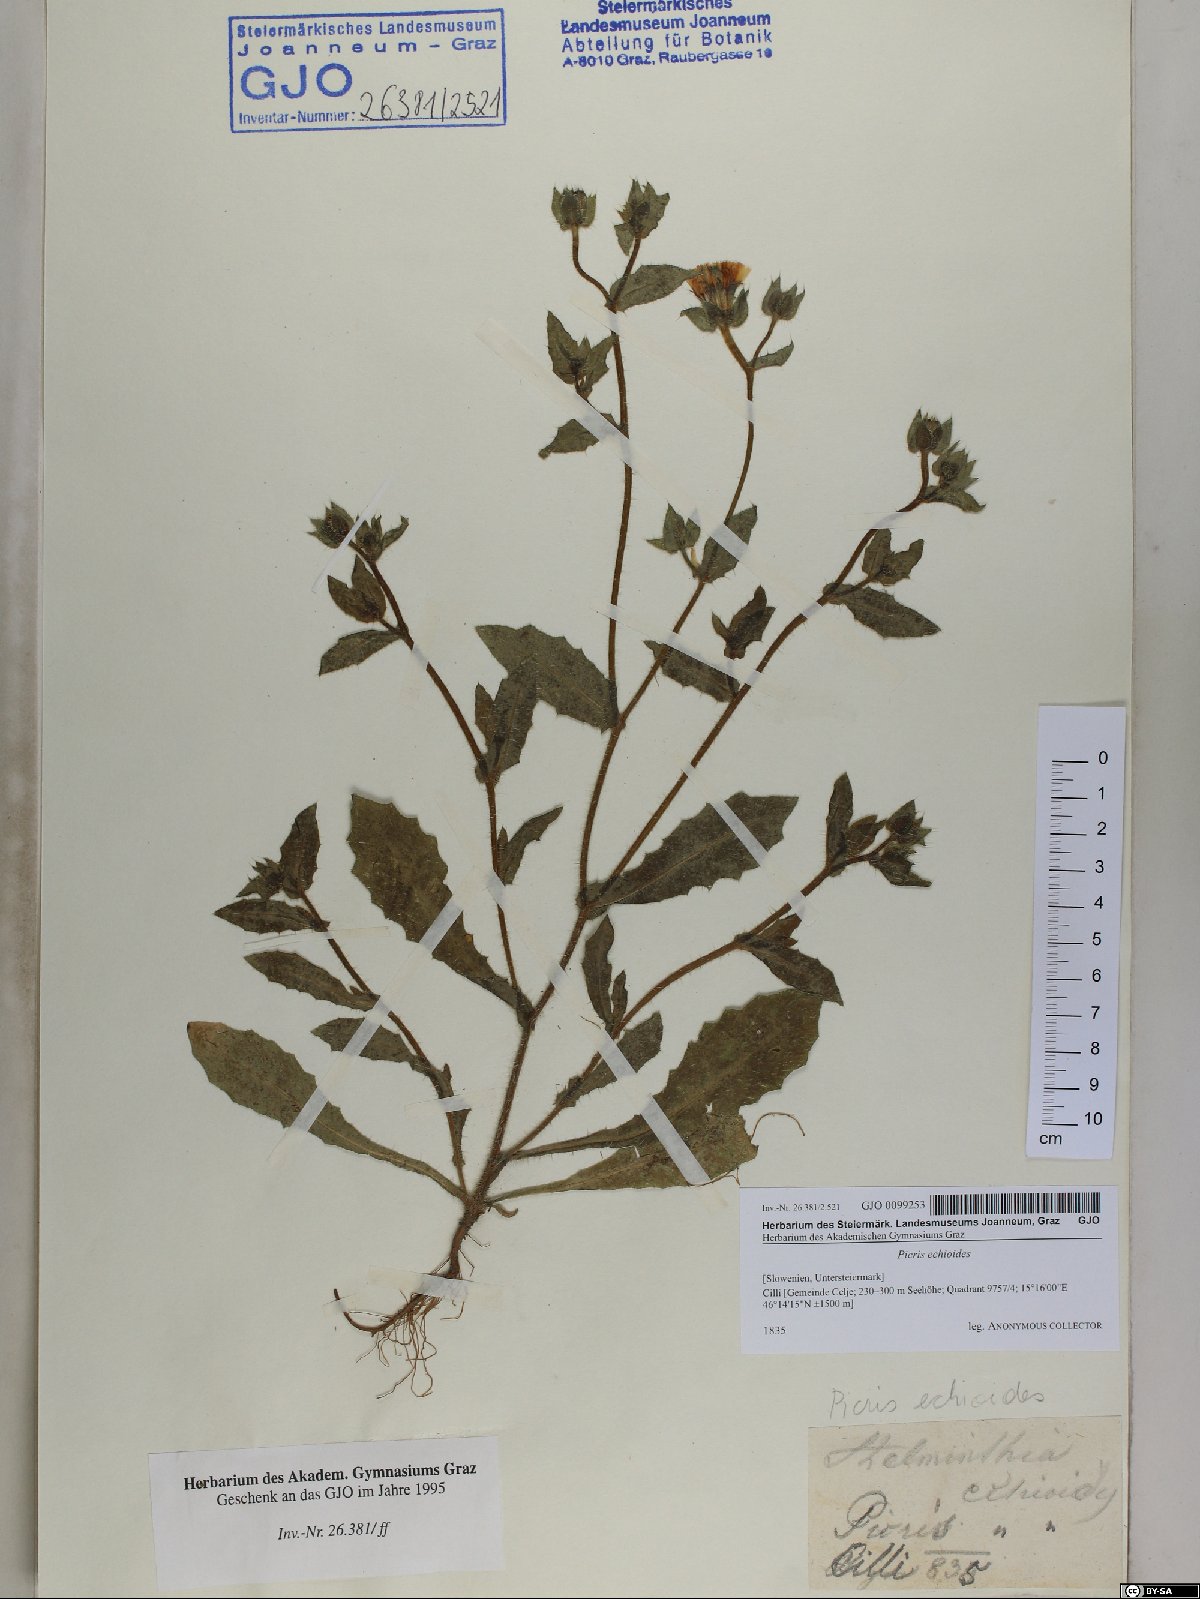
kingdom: Plantae
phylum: Tracheophyta
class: Magnoliopsida
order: Asterales
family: Asteraceae
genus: Helminthotheca
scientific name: Helminthotheca echioides
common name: Ox-tongue
